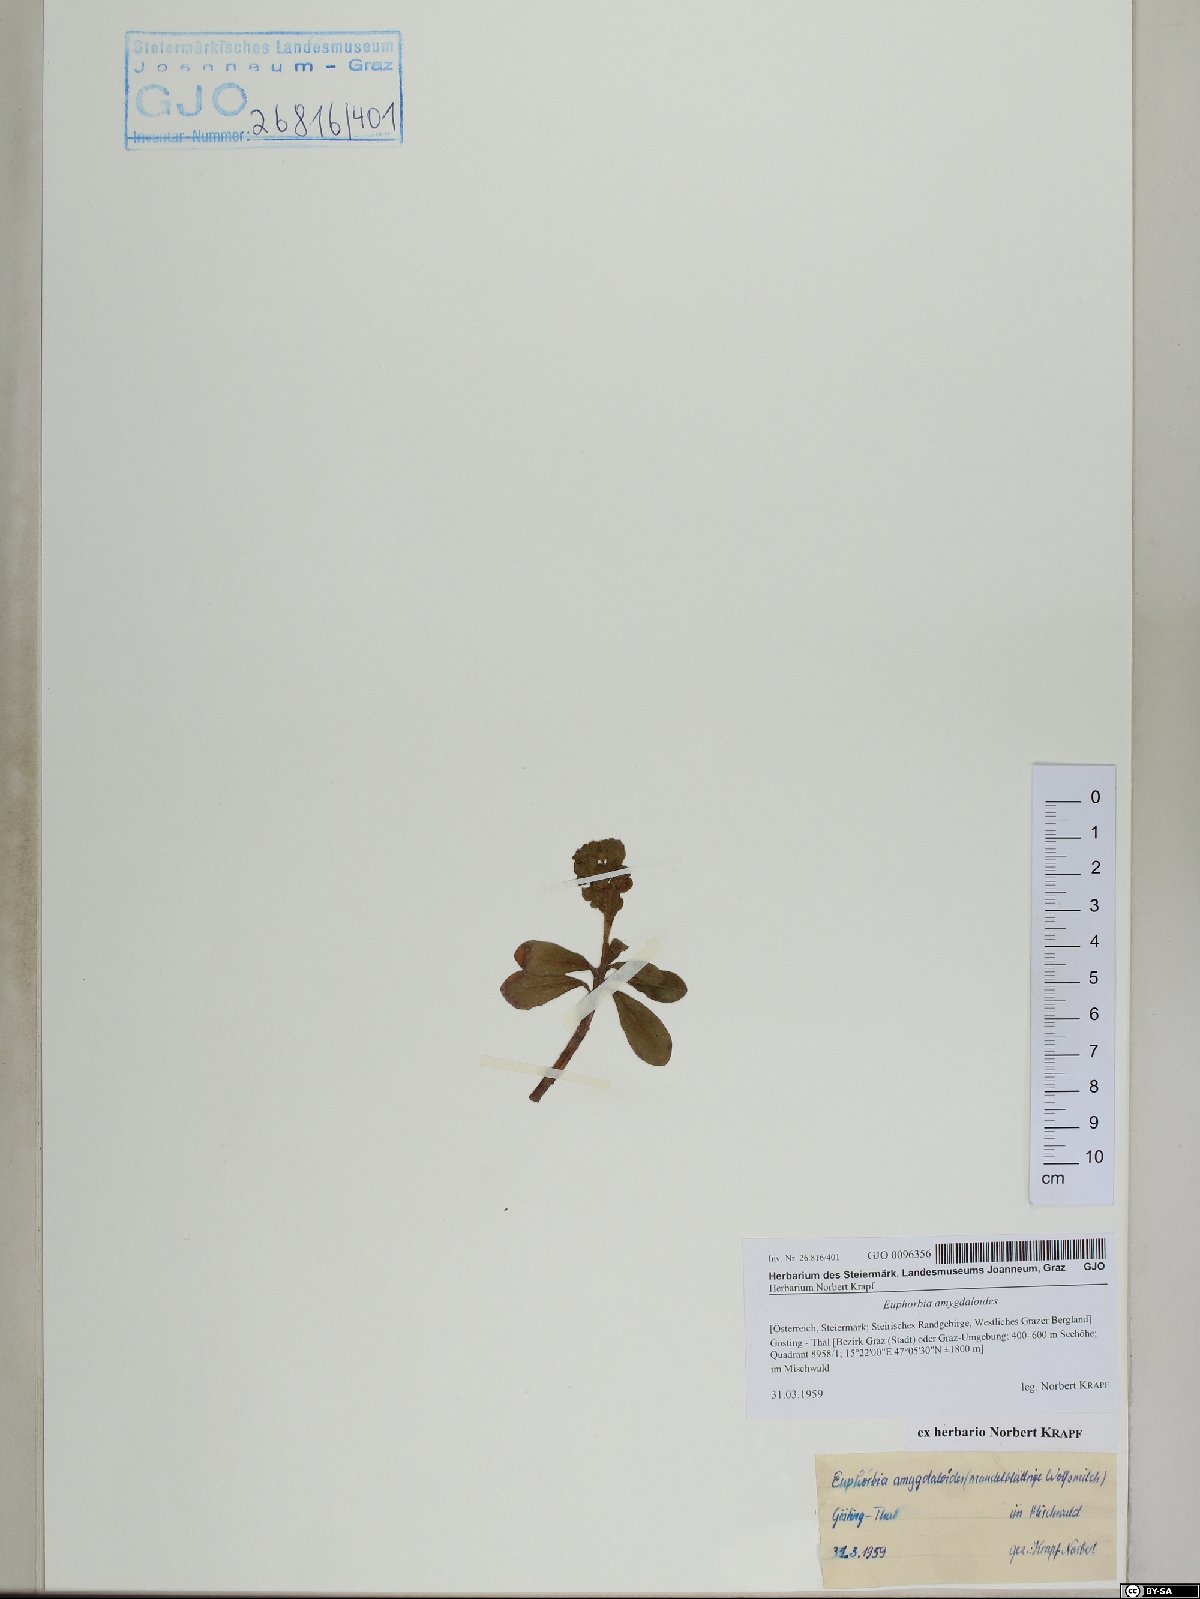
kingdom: Plantae
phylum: Tracheophyta
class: Magnoliopsida
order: Malpighiales
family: Euphorbiaceae
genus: Euphorbia
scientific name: Euphorbia amygdaloides
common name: Wood spurge
